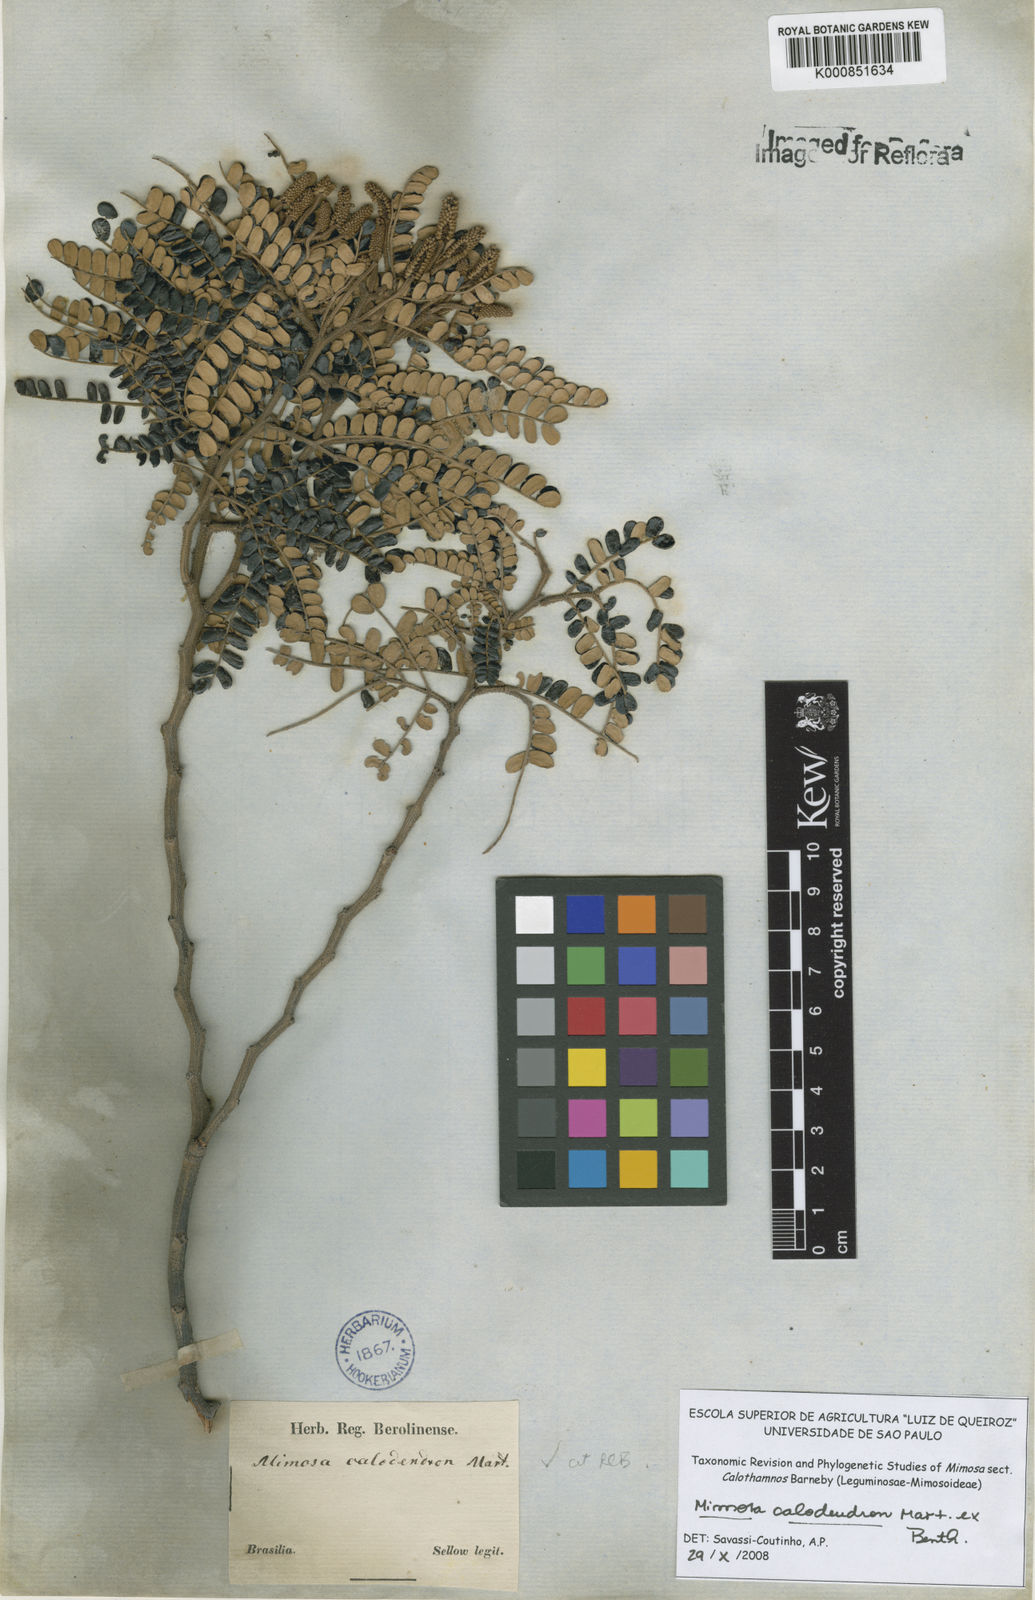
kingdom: Plantae
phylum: Tracheophyta
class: Magnoliopsida
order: Fabales
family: Fabaceae
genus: Mimosa
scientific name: Mimosa
